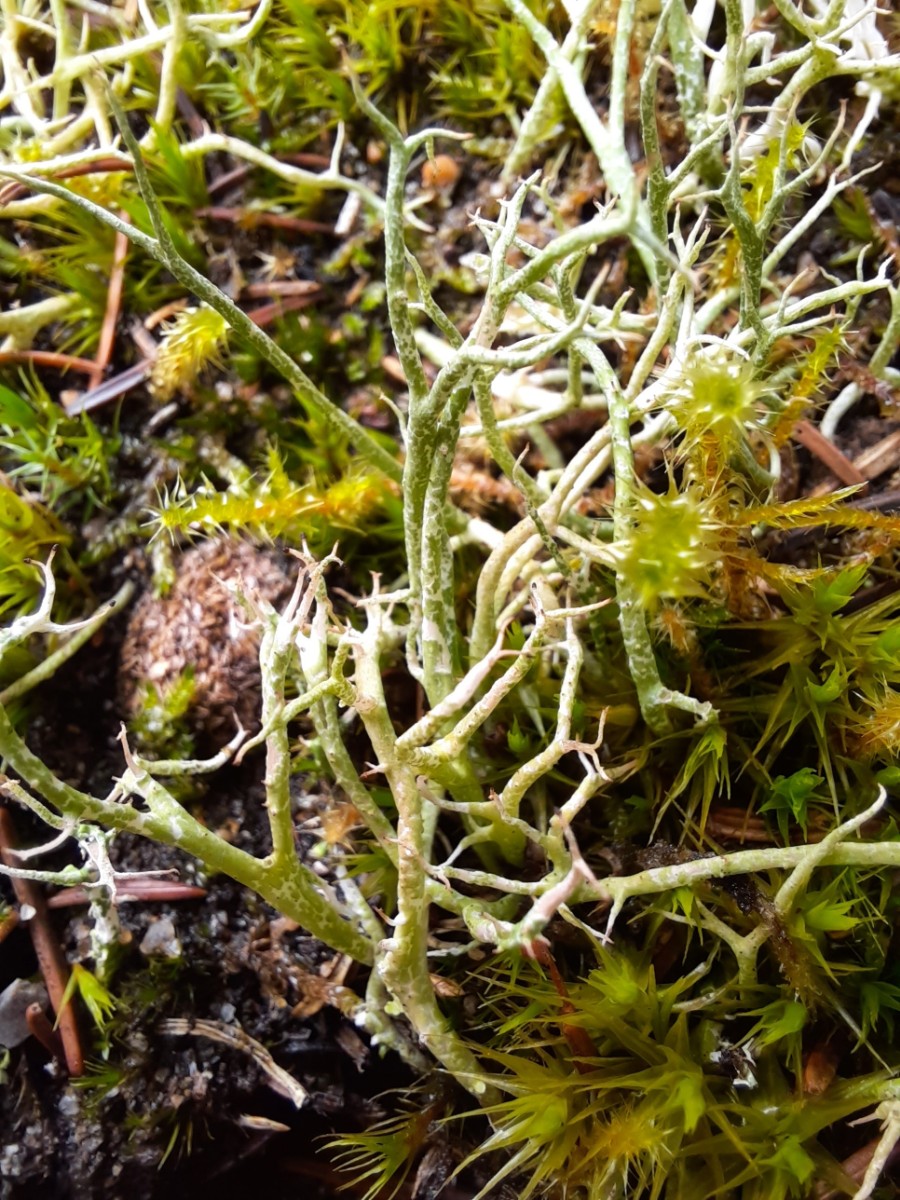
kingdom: Fungi
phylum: Ascomycota
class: Lecanoromycetes
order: Lecanorales
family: Cladoniaceae
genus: Cladonia
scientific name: Cladonia rangiformis
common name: spættet bægerlav
